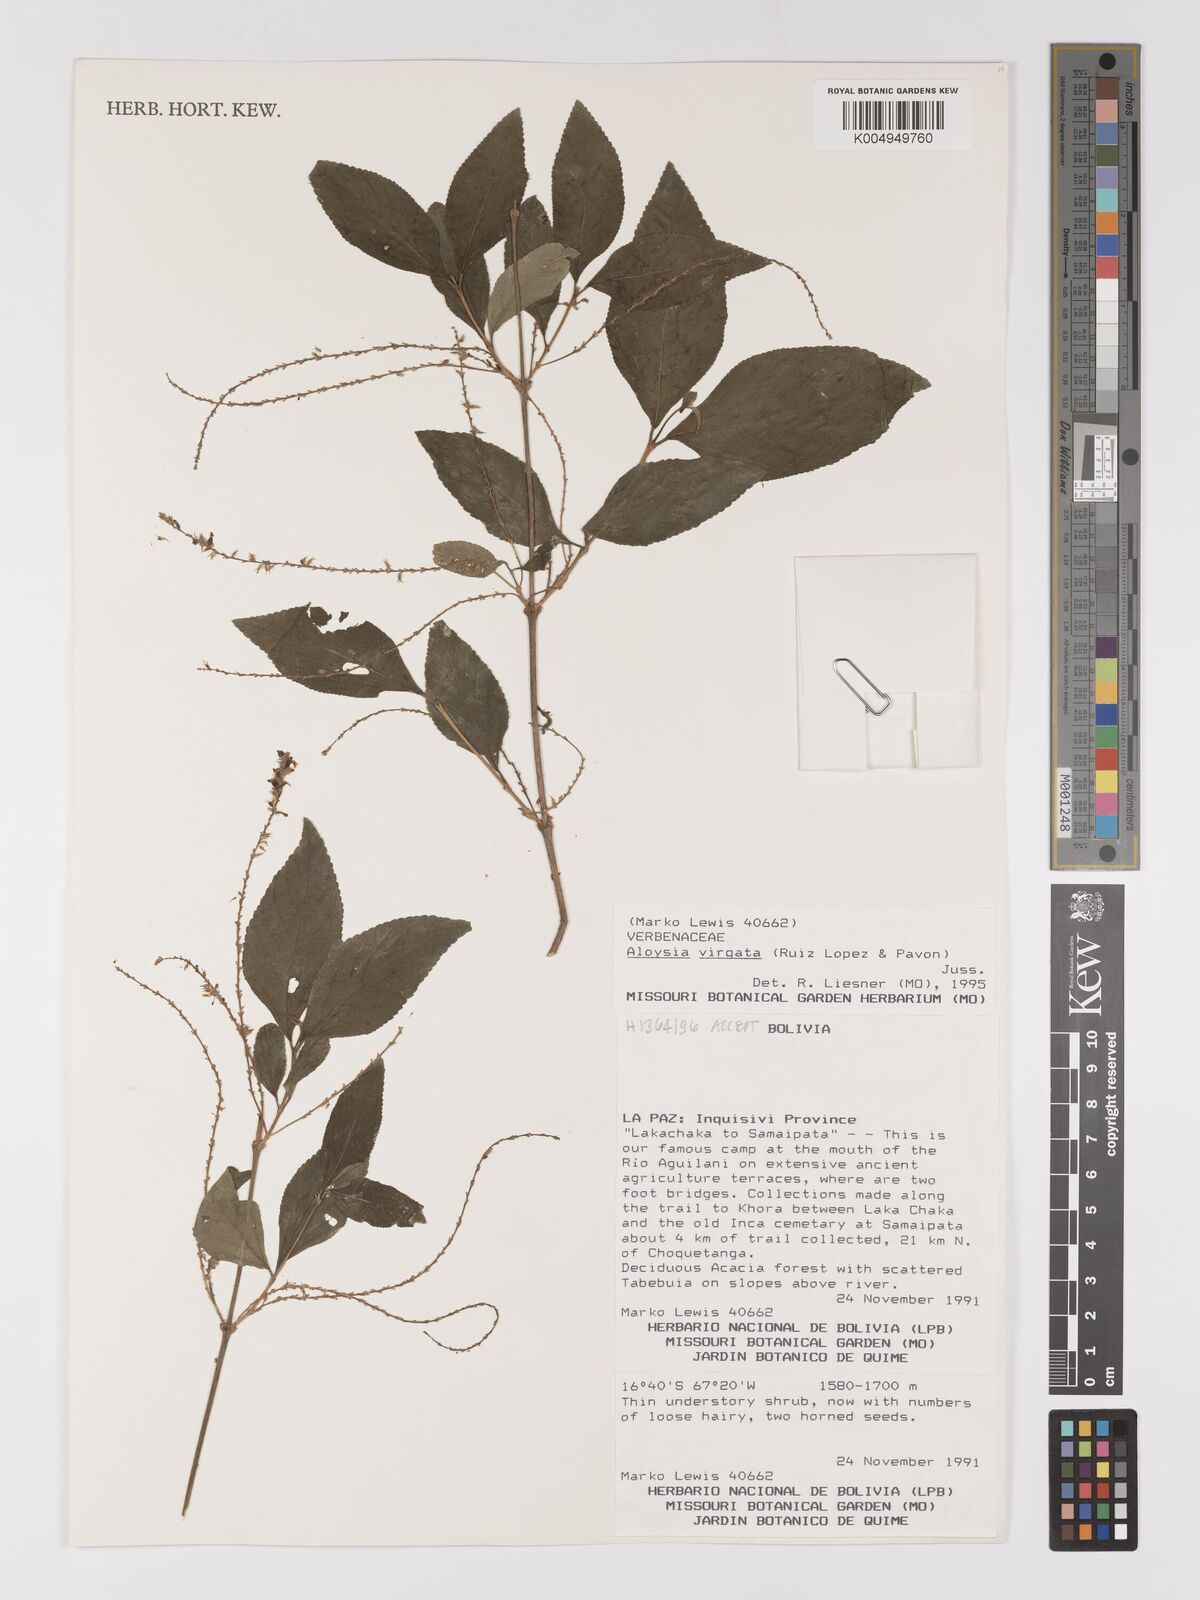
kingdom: Plantae
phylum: Tracheophyta
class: Magnoliopsida
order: Lamiales
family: Verbenaceae
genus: Aloysia
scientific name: Aloysia virgata
